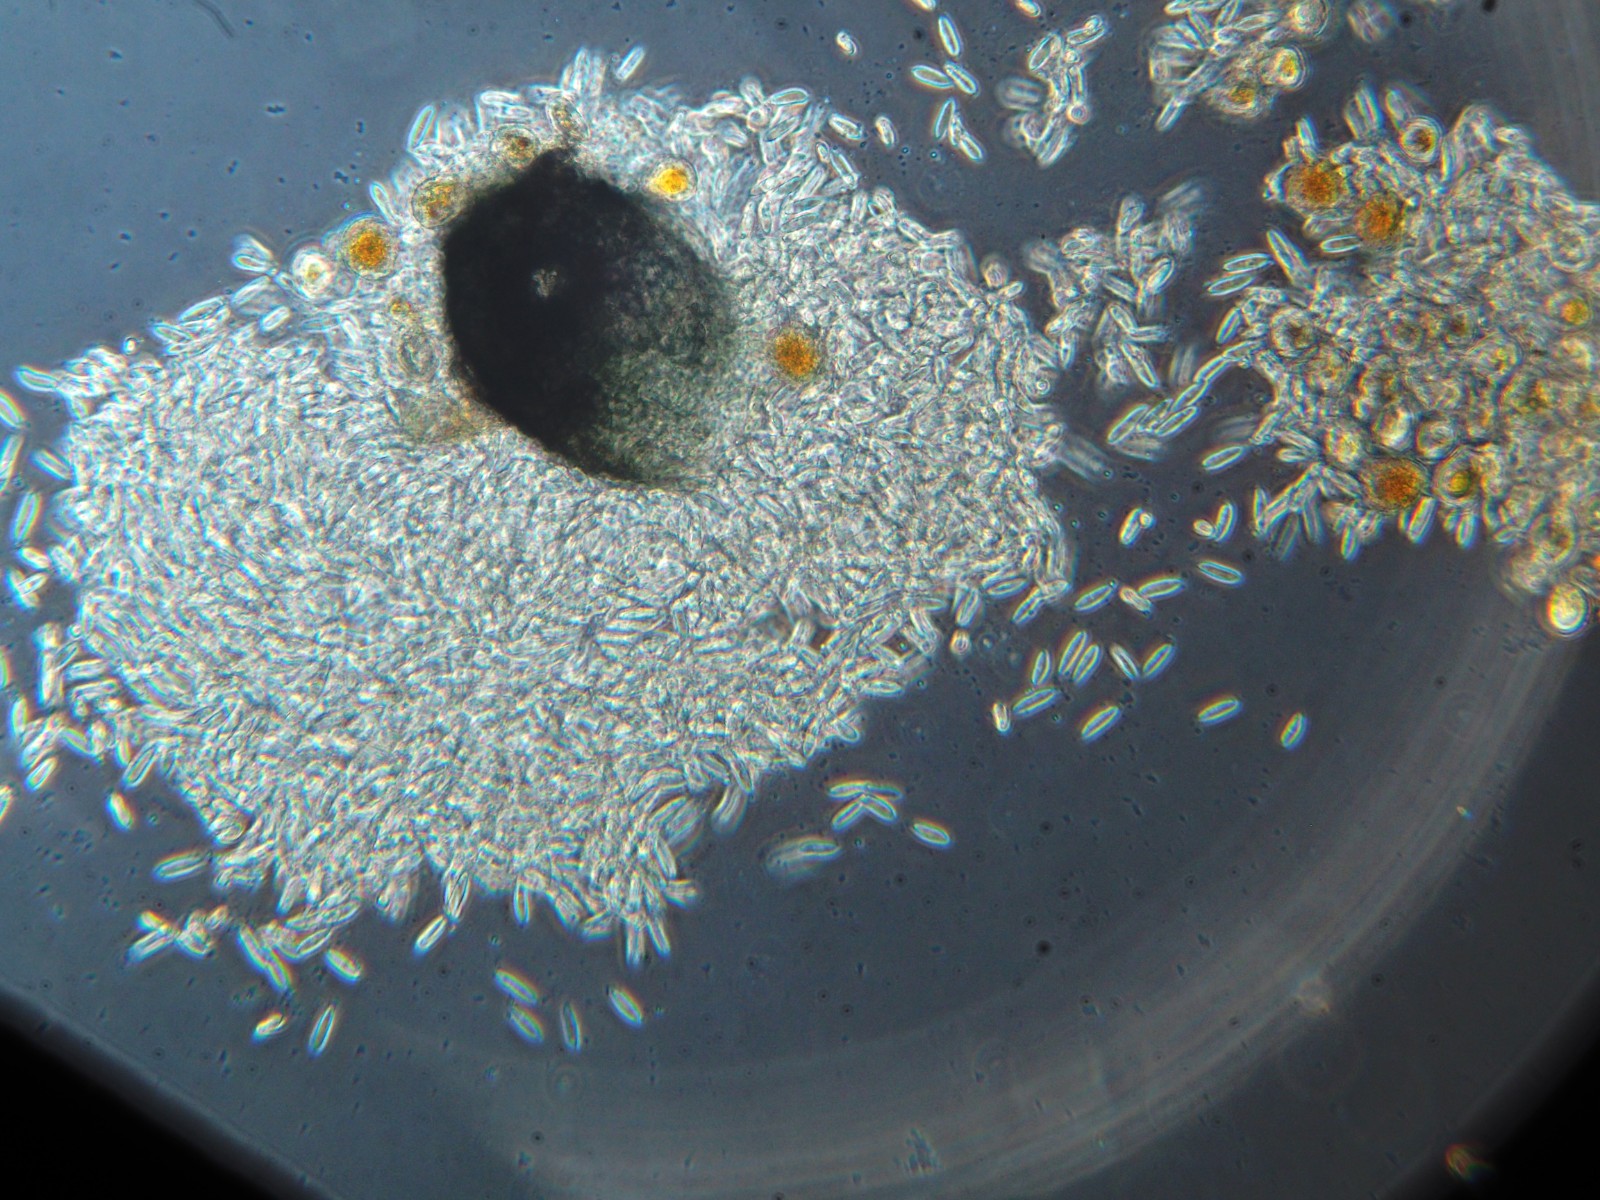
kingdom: Fungi
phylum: Ascomycota
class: Dothideomycetes
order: Pleosporales
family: Phaeosphaeriaceae
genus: Sphaerellopsis
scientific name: Sphaerellopsis filum
